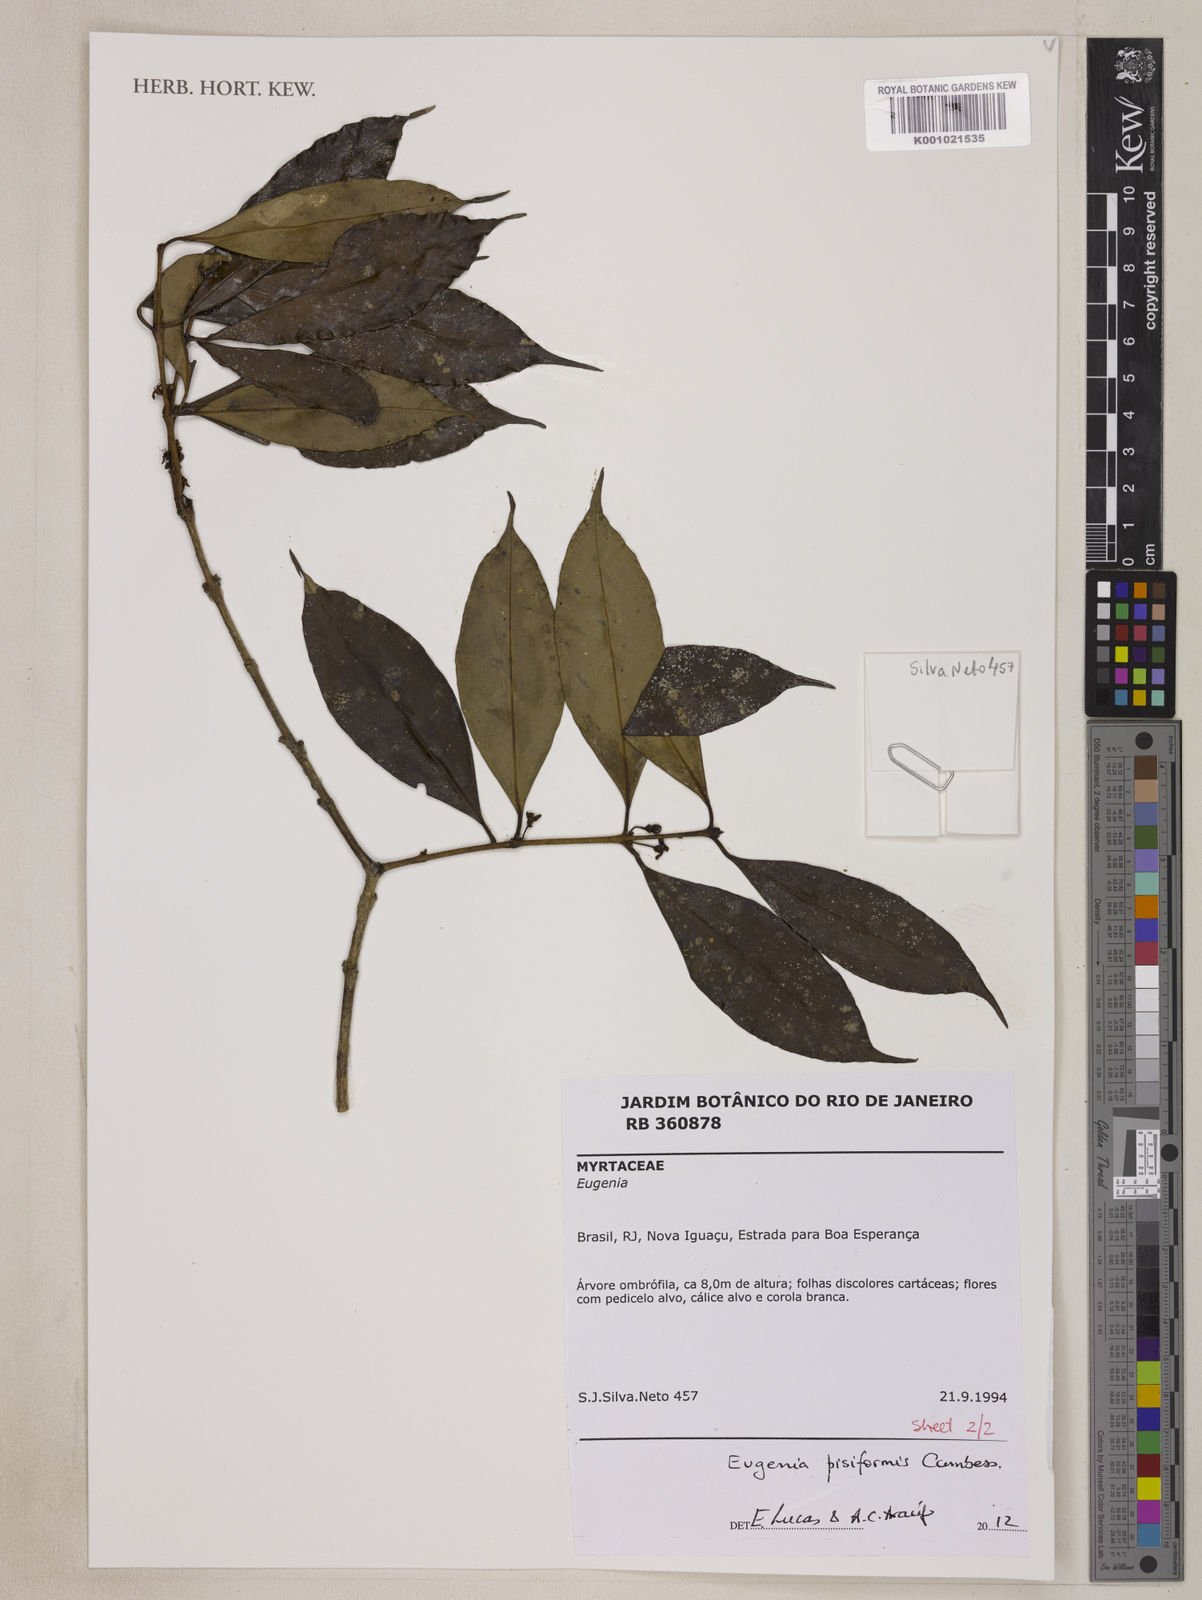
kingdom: Plantae
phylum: Tracheophyta
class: Magnoliopsida
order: Myrtales
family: Myrtaceae
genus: Eugenia
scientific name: Eugenia pisiformis
